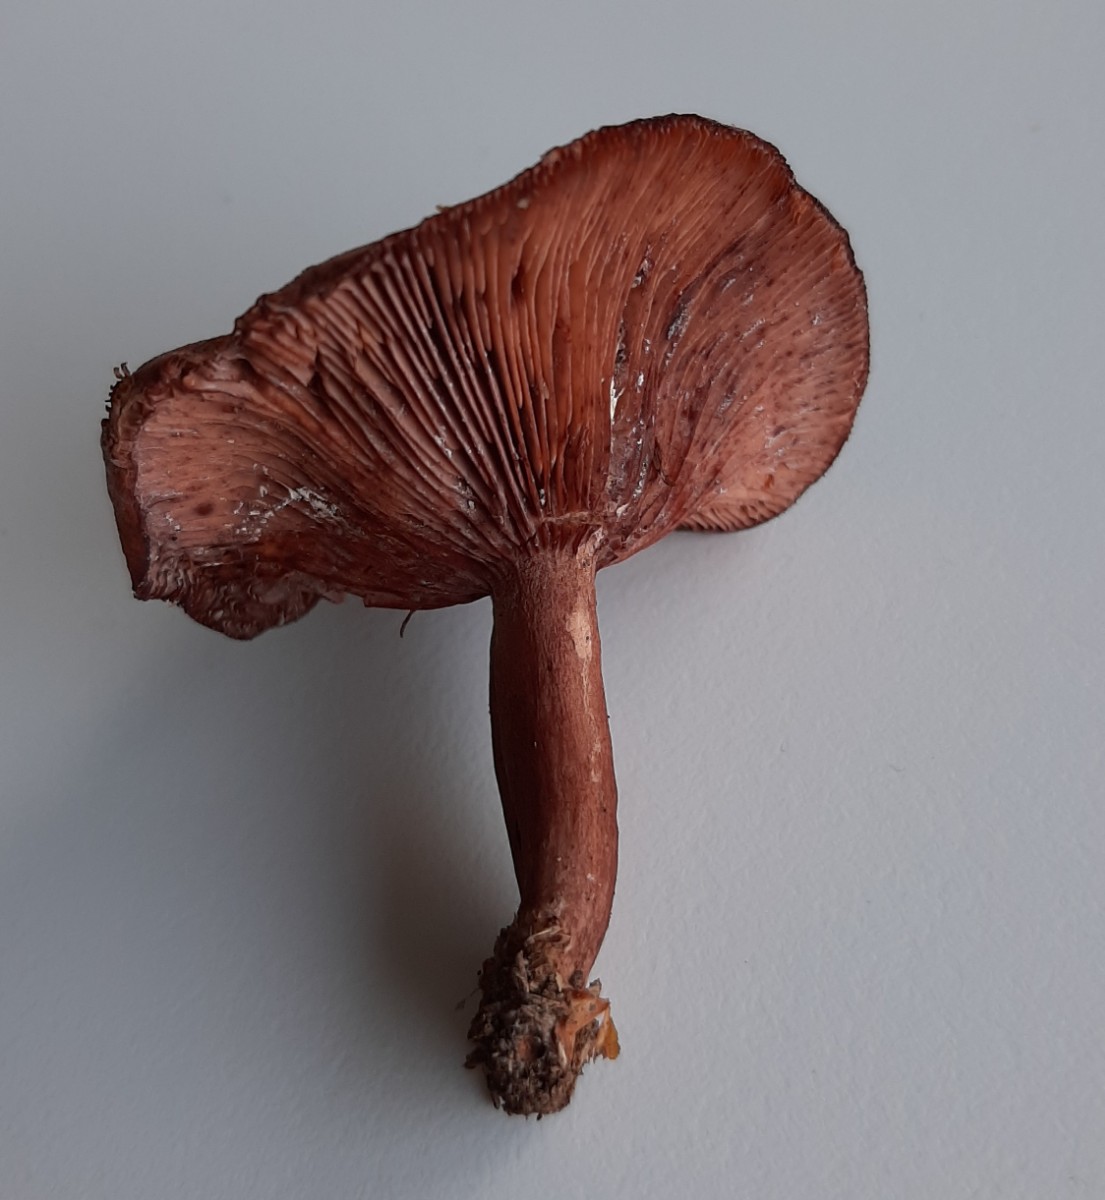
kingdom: Fungi
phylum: Basidiomycota
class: Agaricomycetes
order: Russulales
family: Russulaceae
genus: Lactarius
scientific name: Lactarius camphoratus
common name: kamfer-mælkehat
